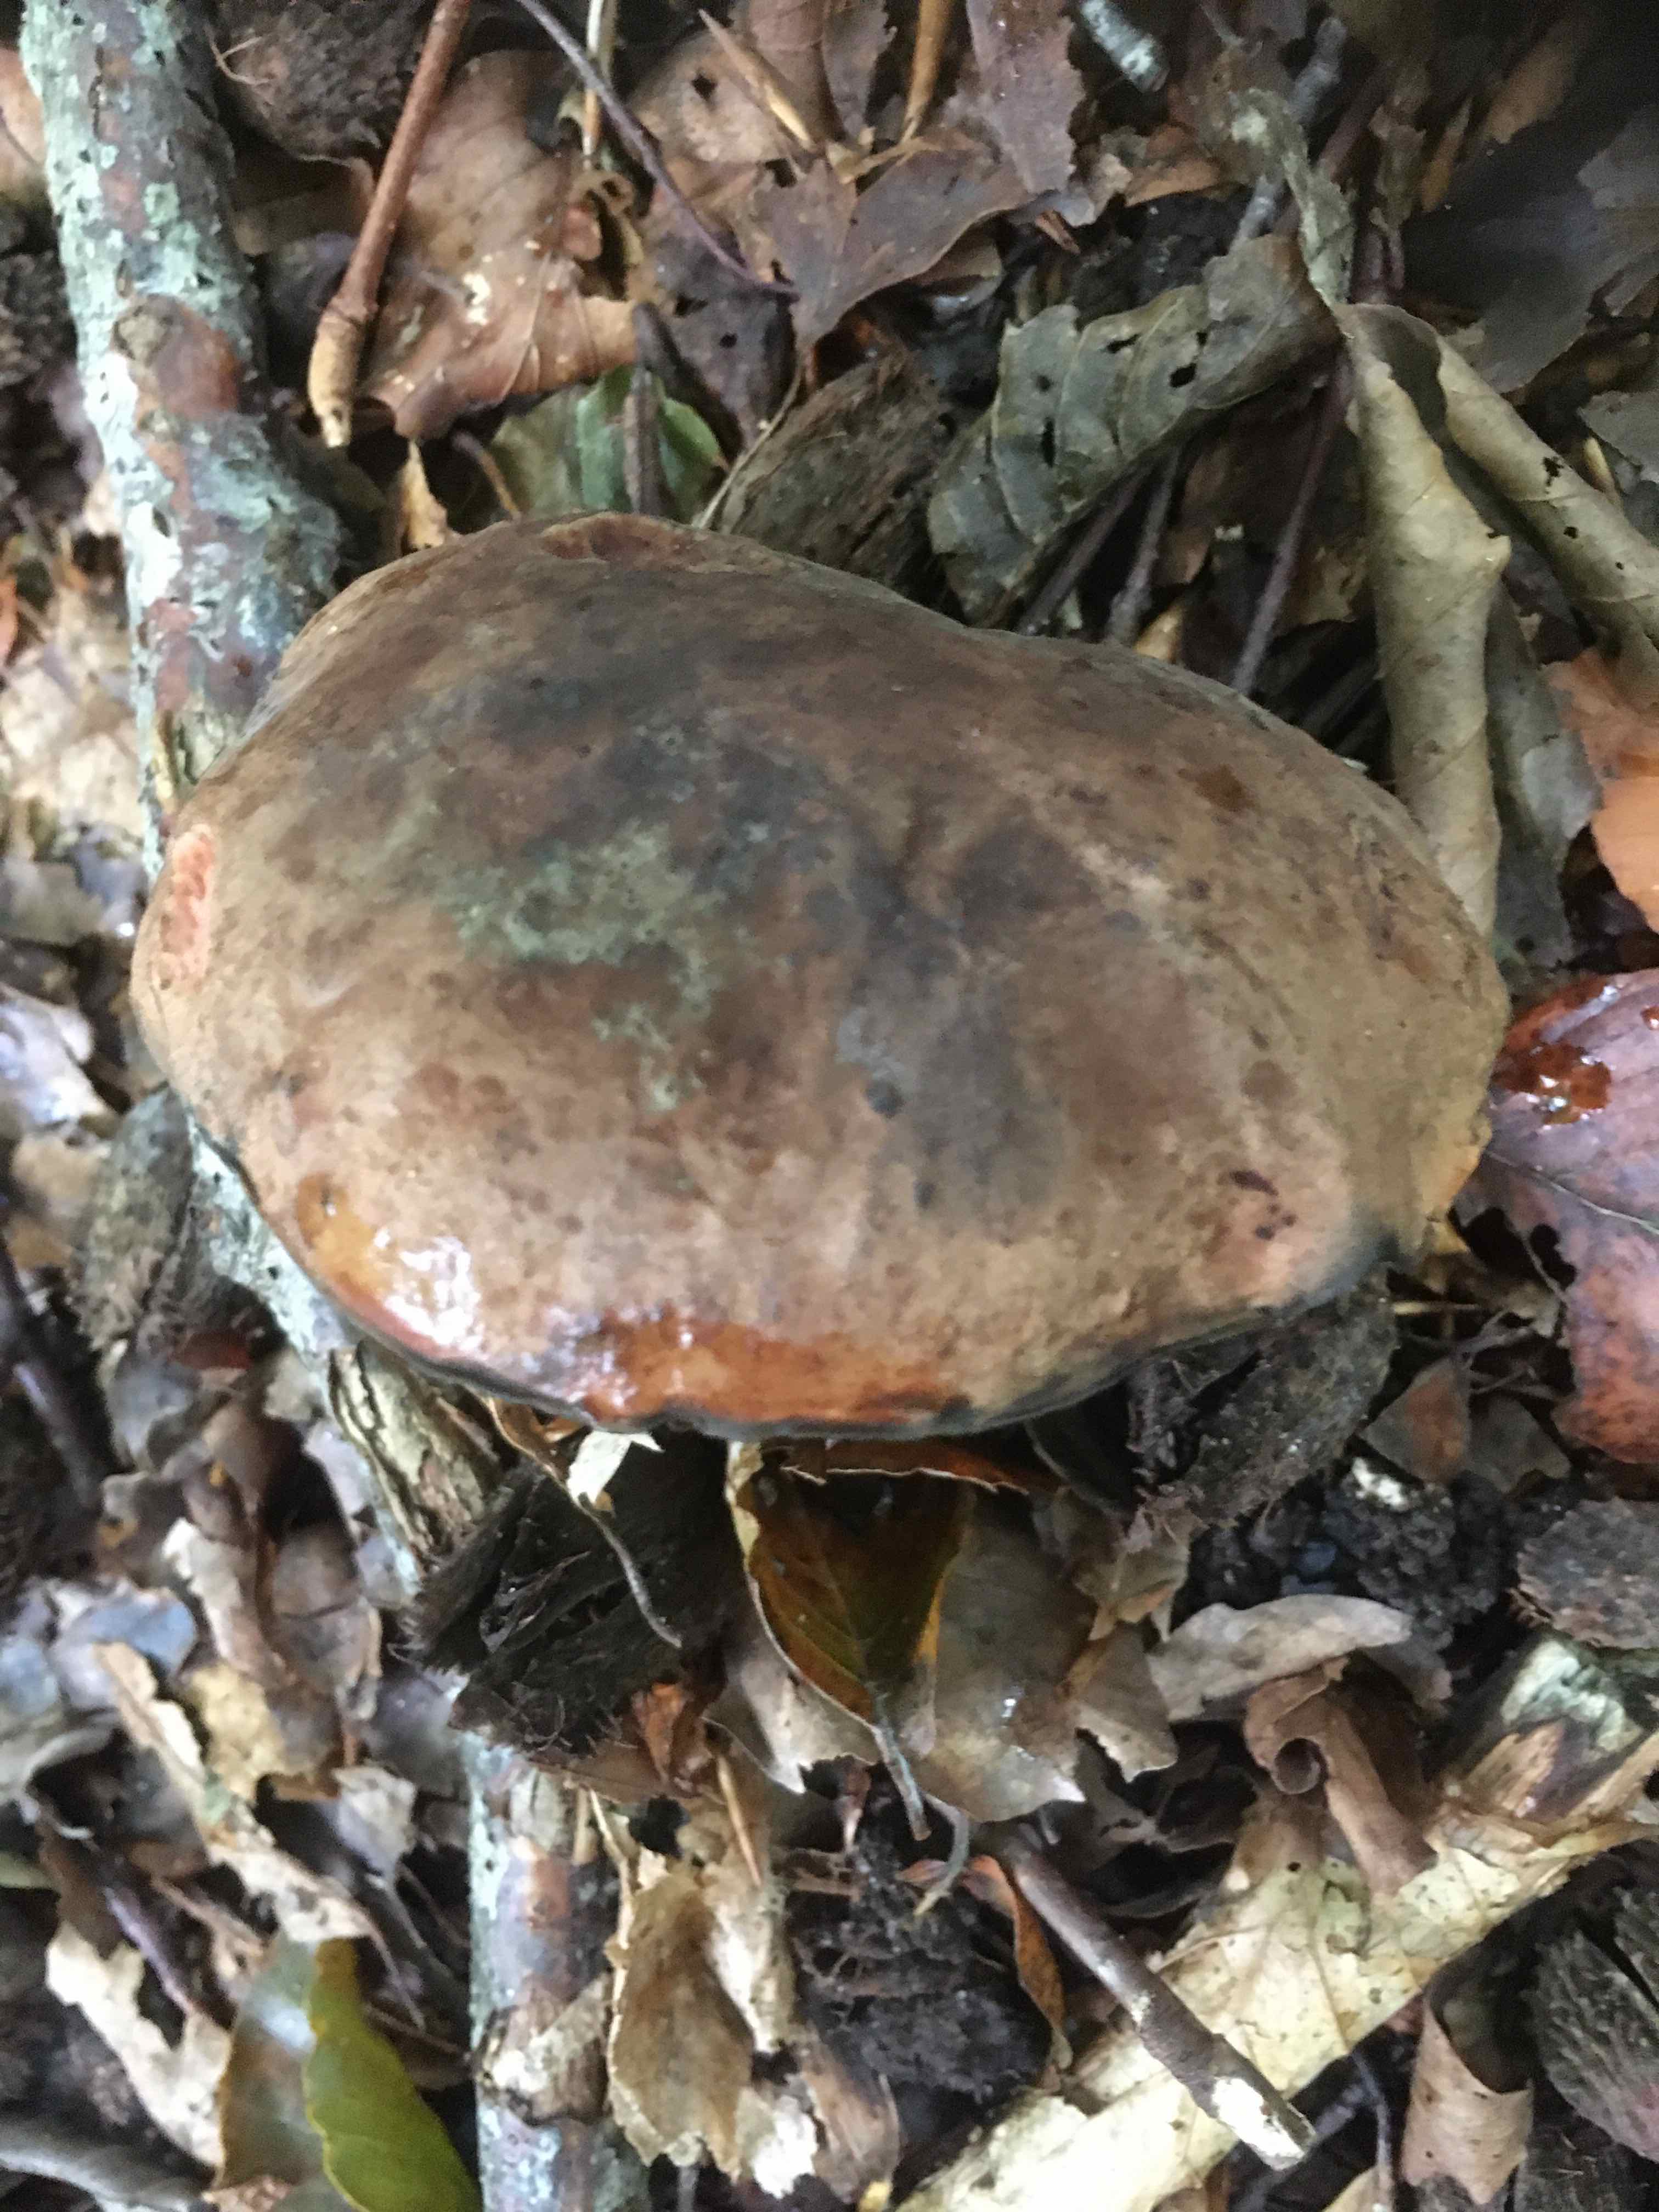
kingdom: Fungi
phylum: Basidiomycota
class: Agaricomycetes
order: Boletales
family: Boletaceae
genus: Neoboletus
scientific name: Neoboletus erythropus
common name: punktstokket indigorørhat
